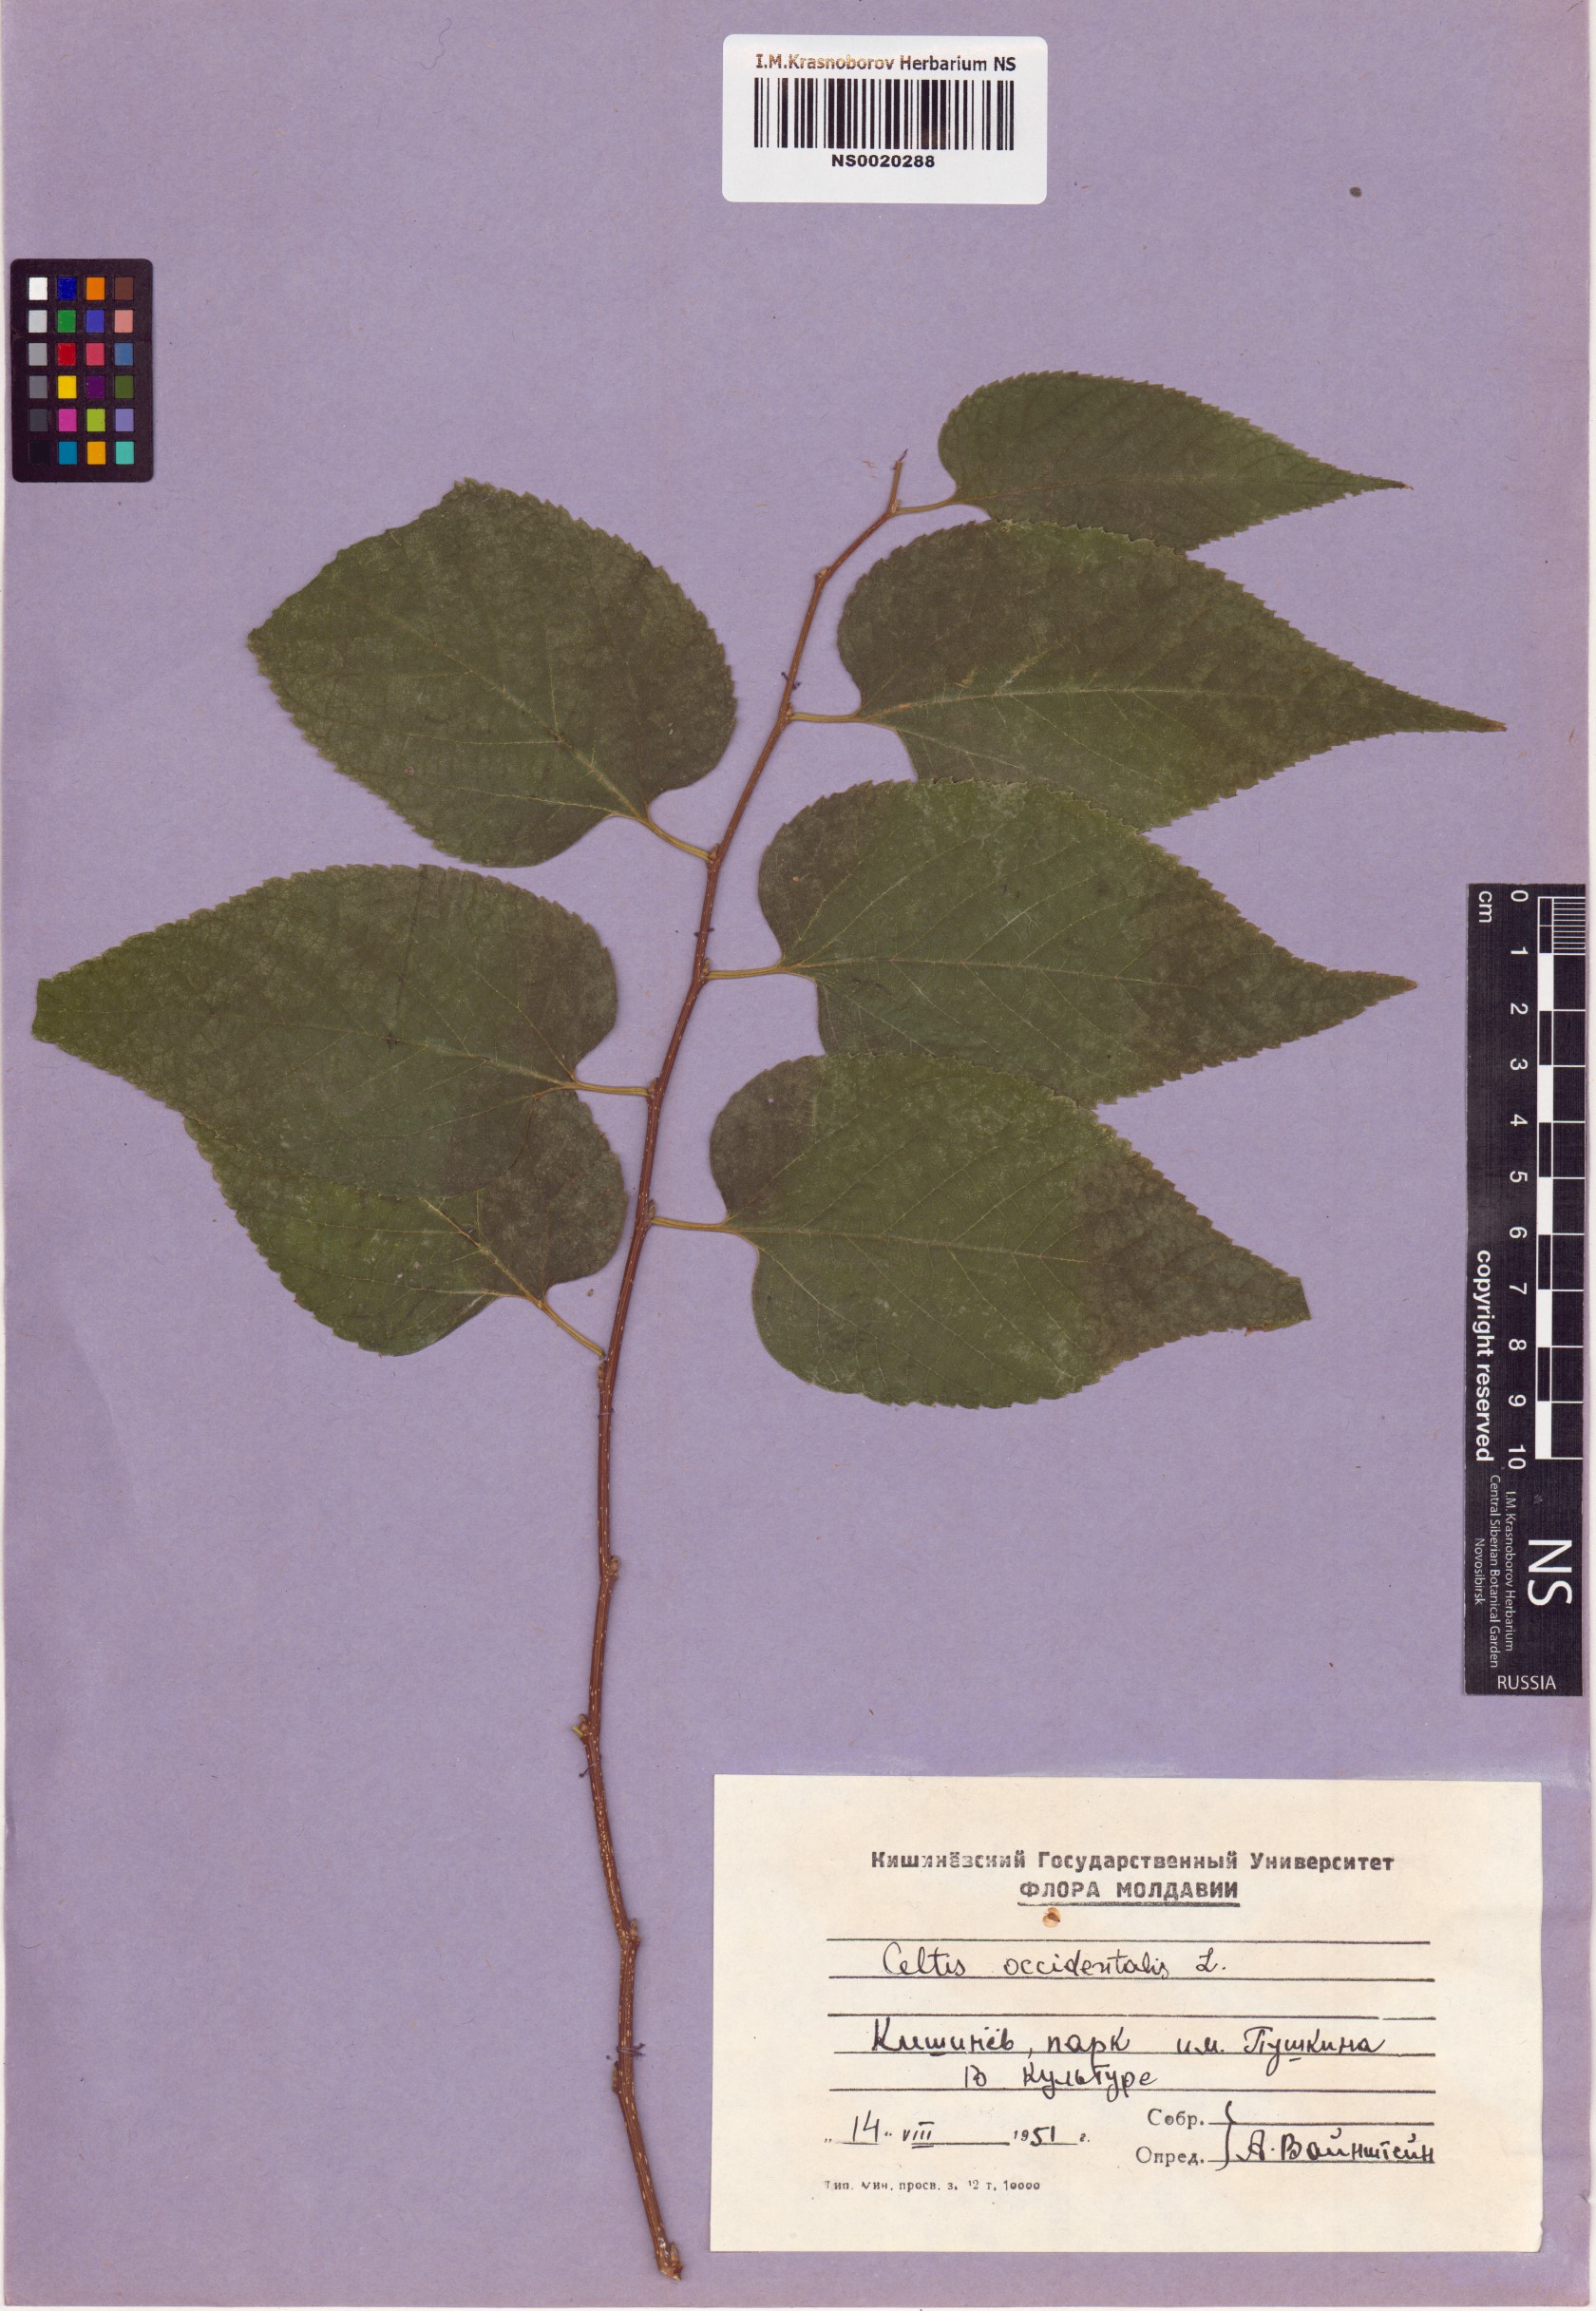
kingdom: Plantae
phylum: Tracheophyta
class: Magnoliopsida
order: Rosales
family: Cannabaceae
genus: Celtis
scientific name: Celtis occidentalis
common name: Common hackberry
